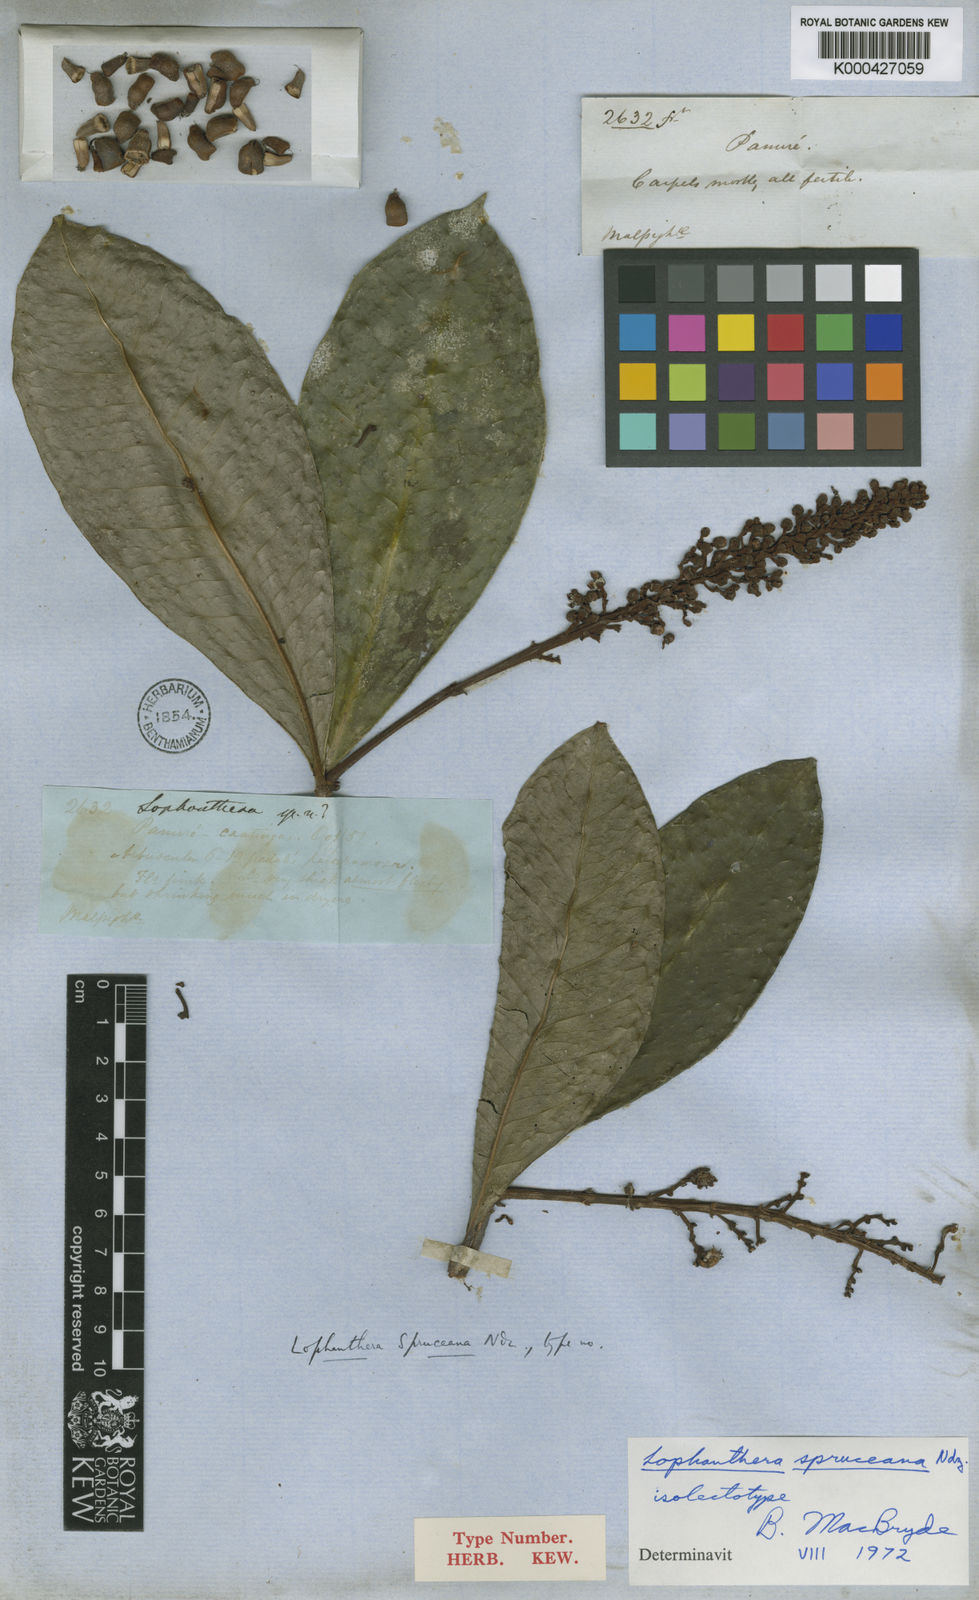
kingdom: Plantae
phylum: Tracheophyta
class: Magnoliopsida
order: Malpighiales
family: Malpighiaceae
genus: Andersoniodoxa
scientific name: Andersoniodoxa spruceana
